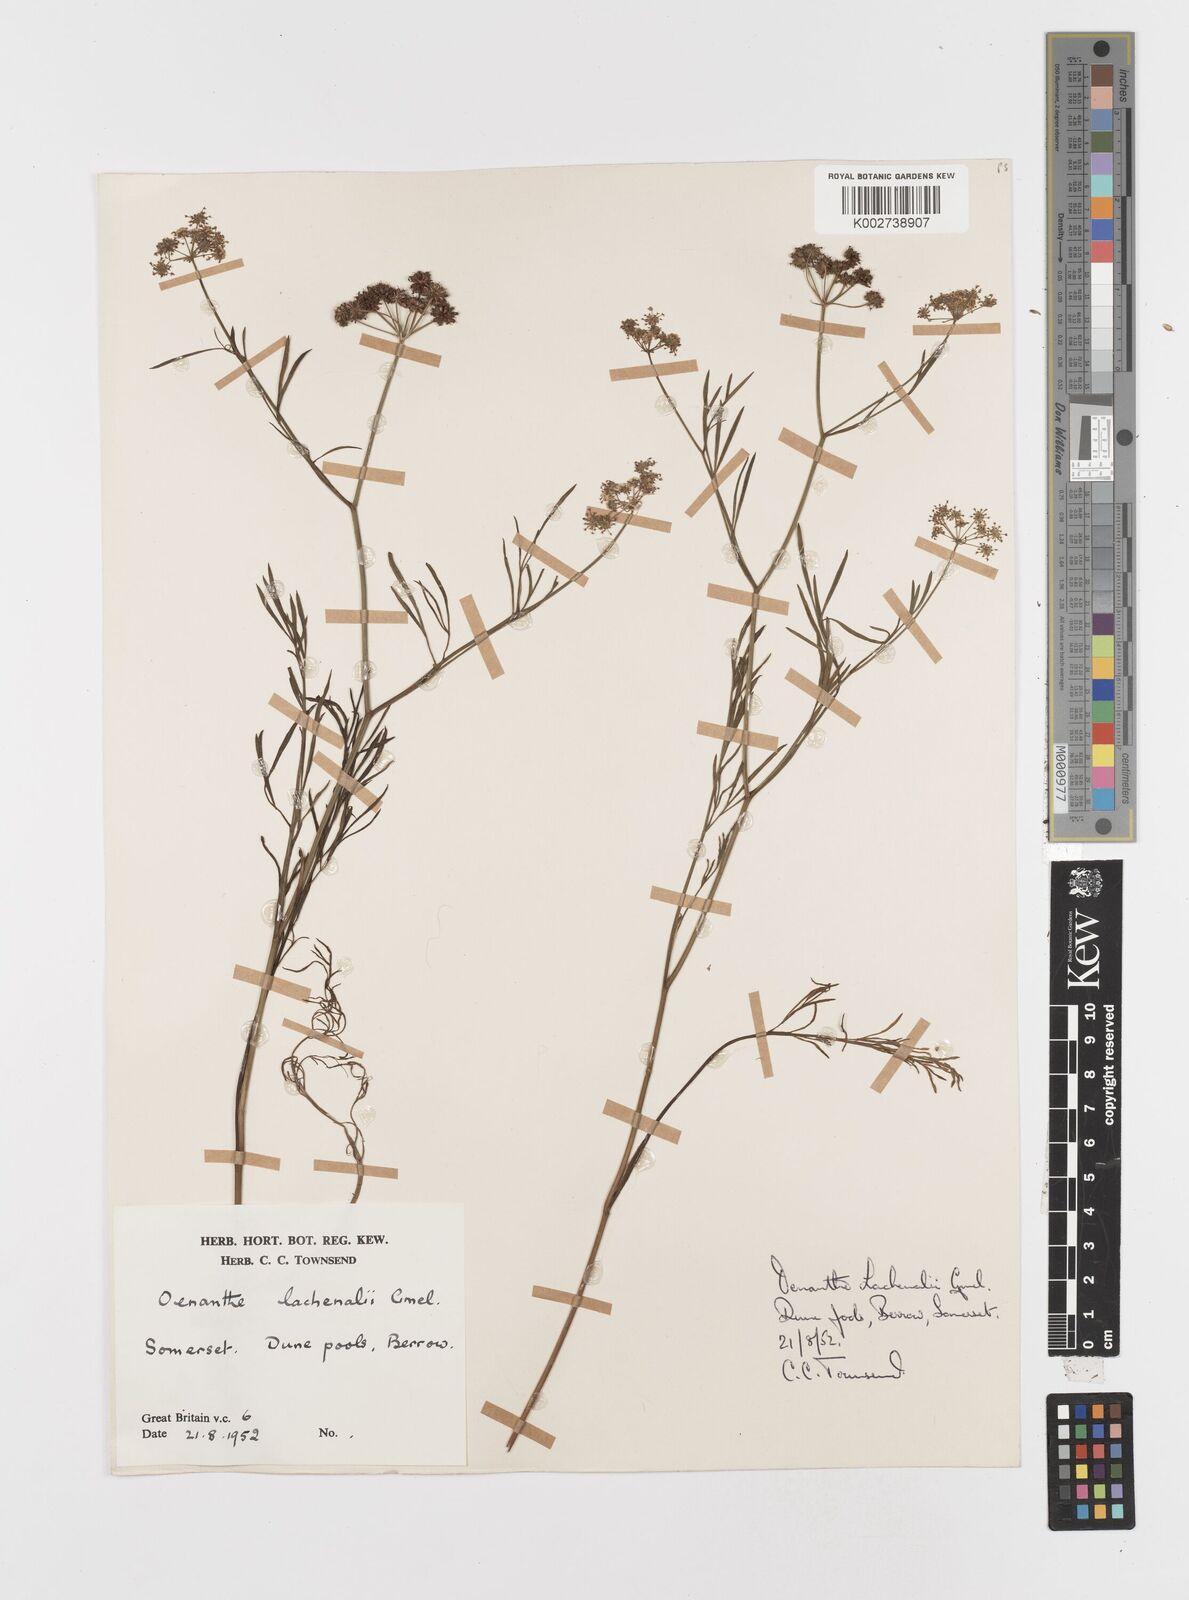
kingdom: Plantae
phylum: Tracheophyta
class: Magnoliopsida
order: Apiales
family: Apiaceae
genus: Oenanthe
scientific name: Oenanthe lachenalii
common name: Parsley water-dropwort
